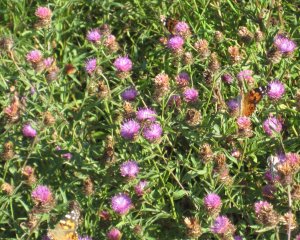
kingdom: Animalia
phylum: Arthropoda
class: Insecta
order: Lepidoptera
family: Nymphalidae
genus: Vanessa
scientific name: Vanessa cardui
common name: Painted Lady
